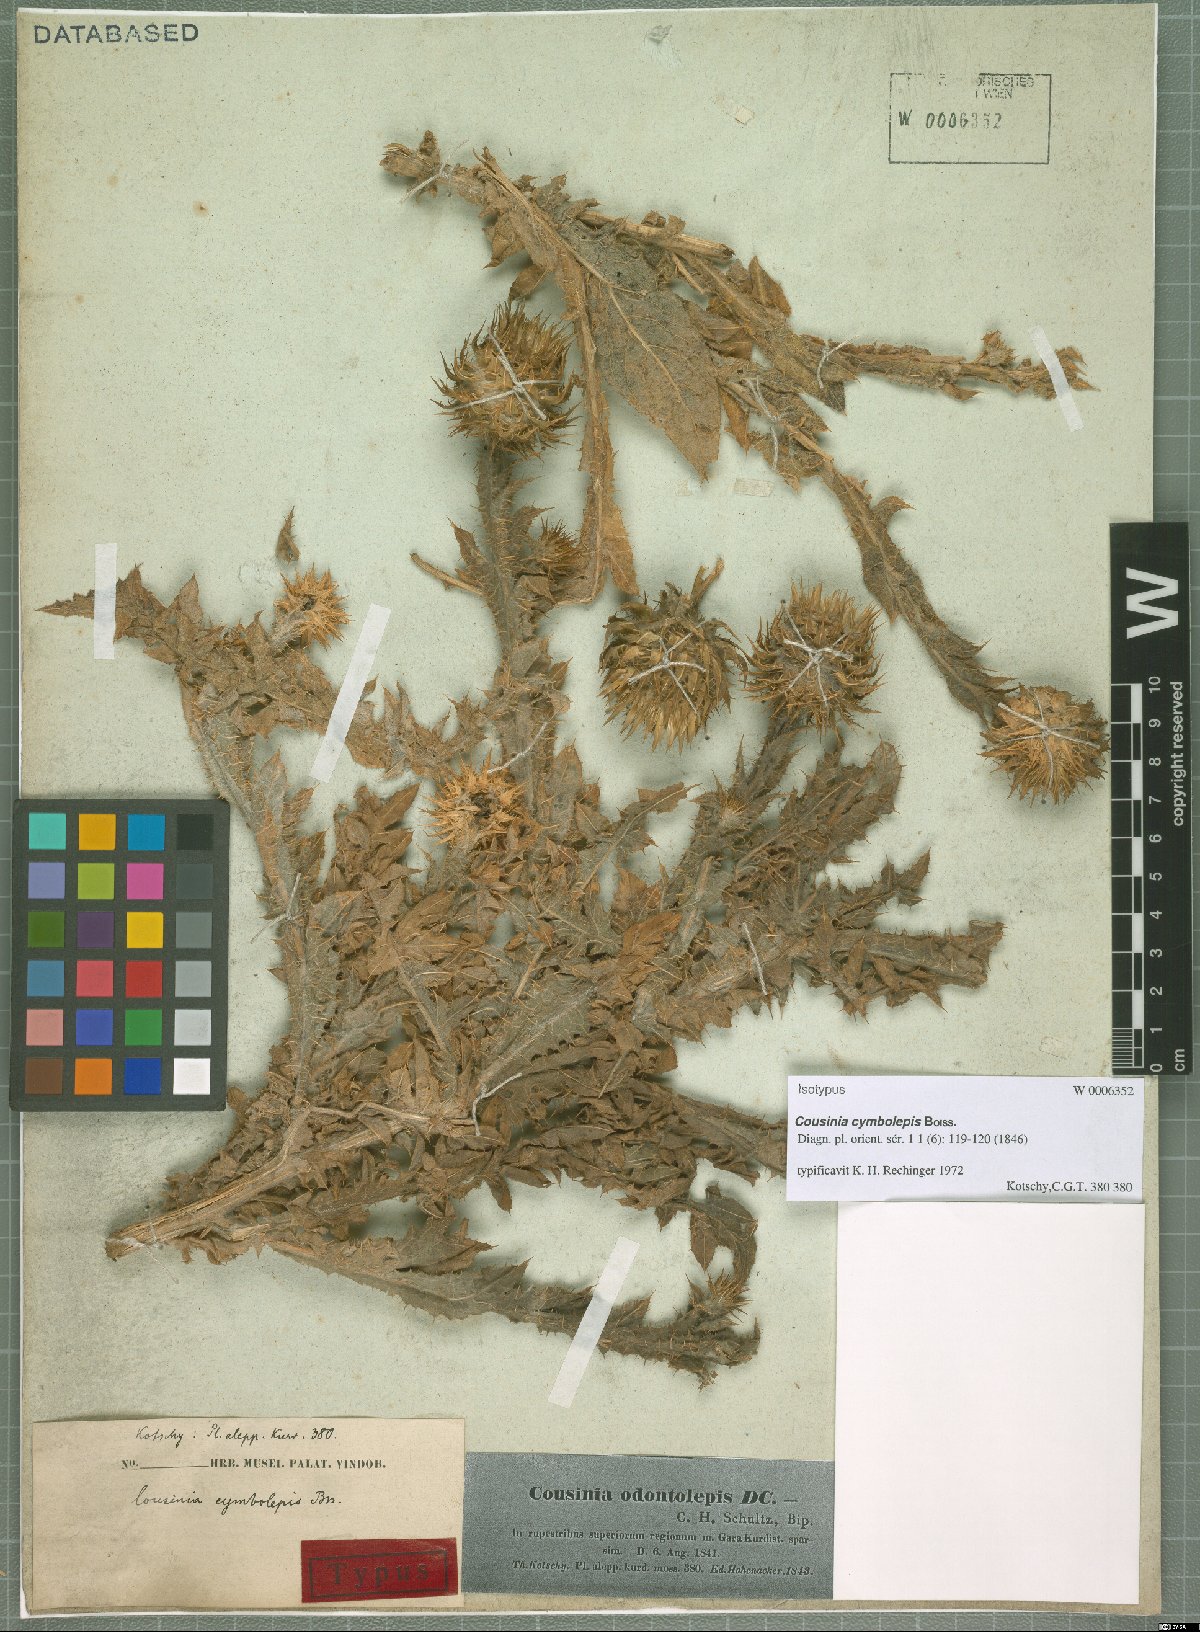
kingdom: Plantae
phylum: Tracheophyta
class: Magnoliopsida
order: Asterales
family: Asteraceae
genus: Cousinia
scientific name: Cousinia odontolepis
